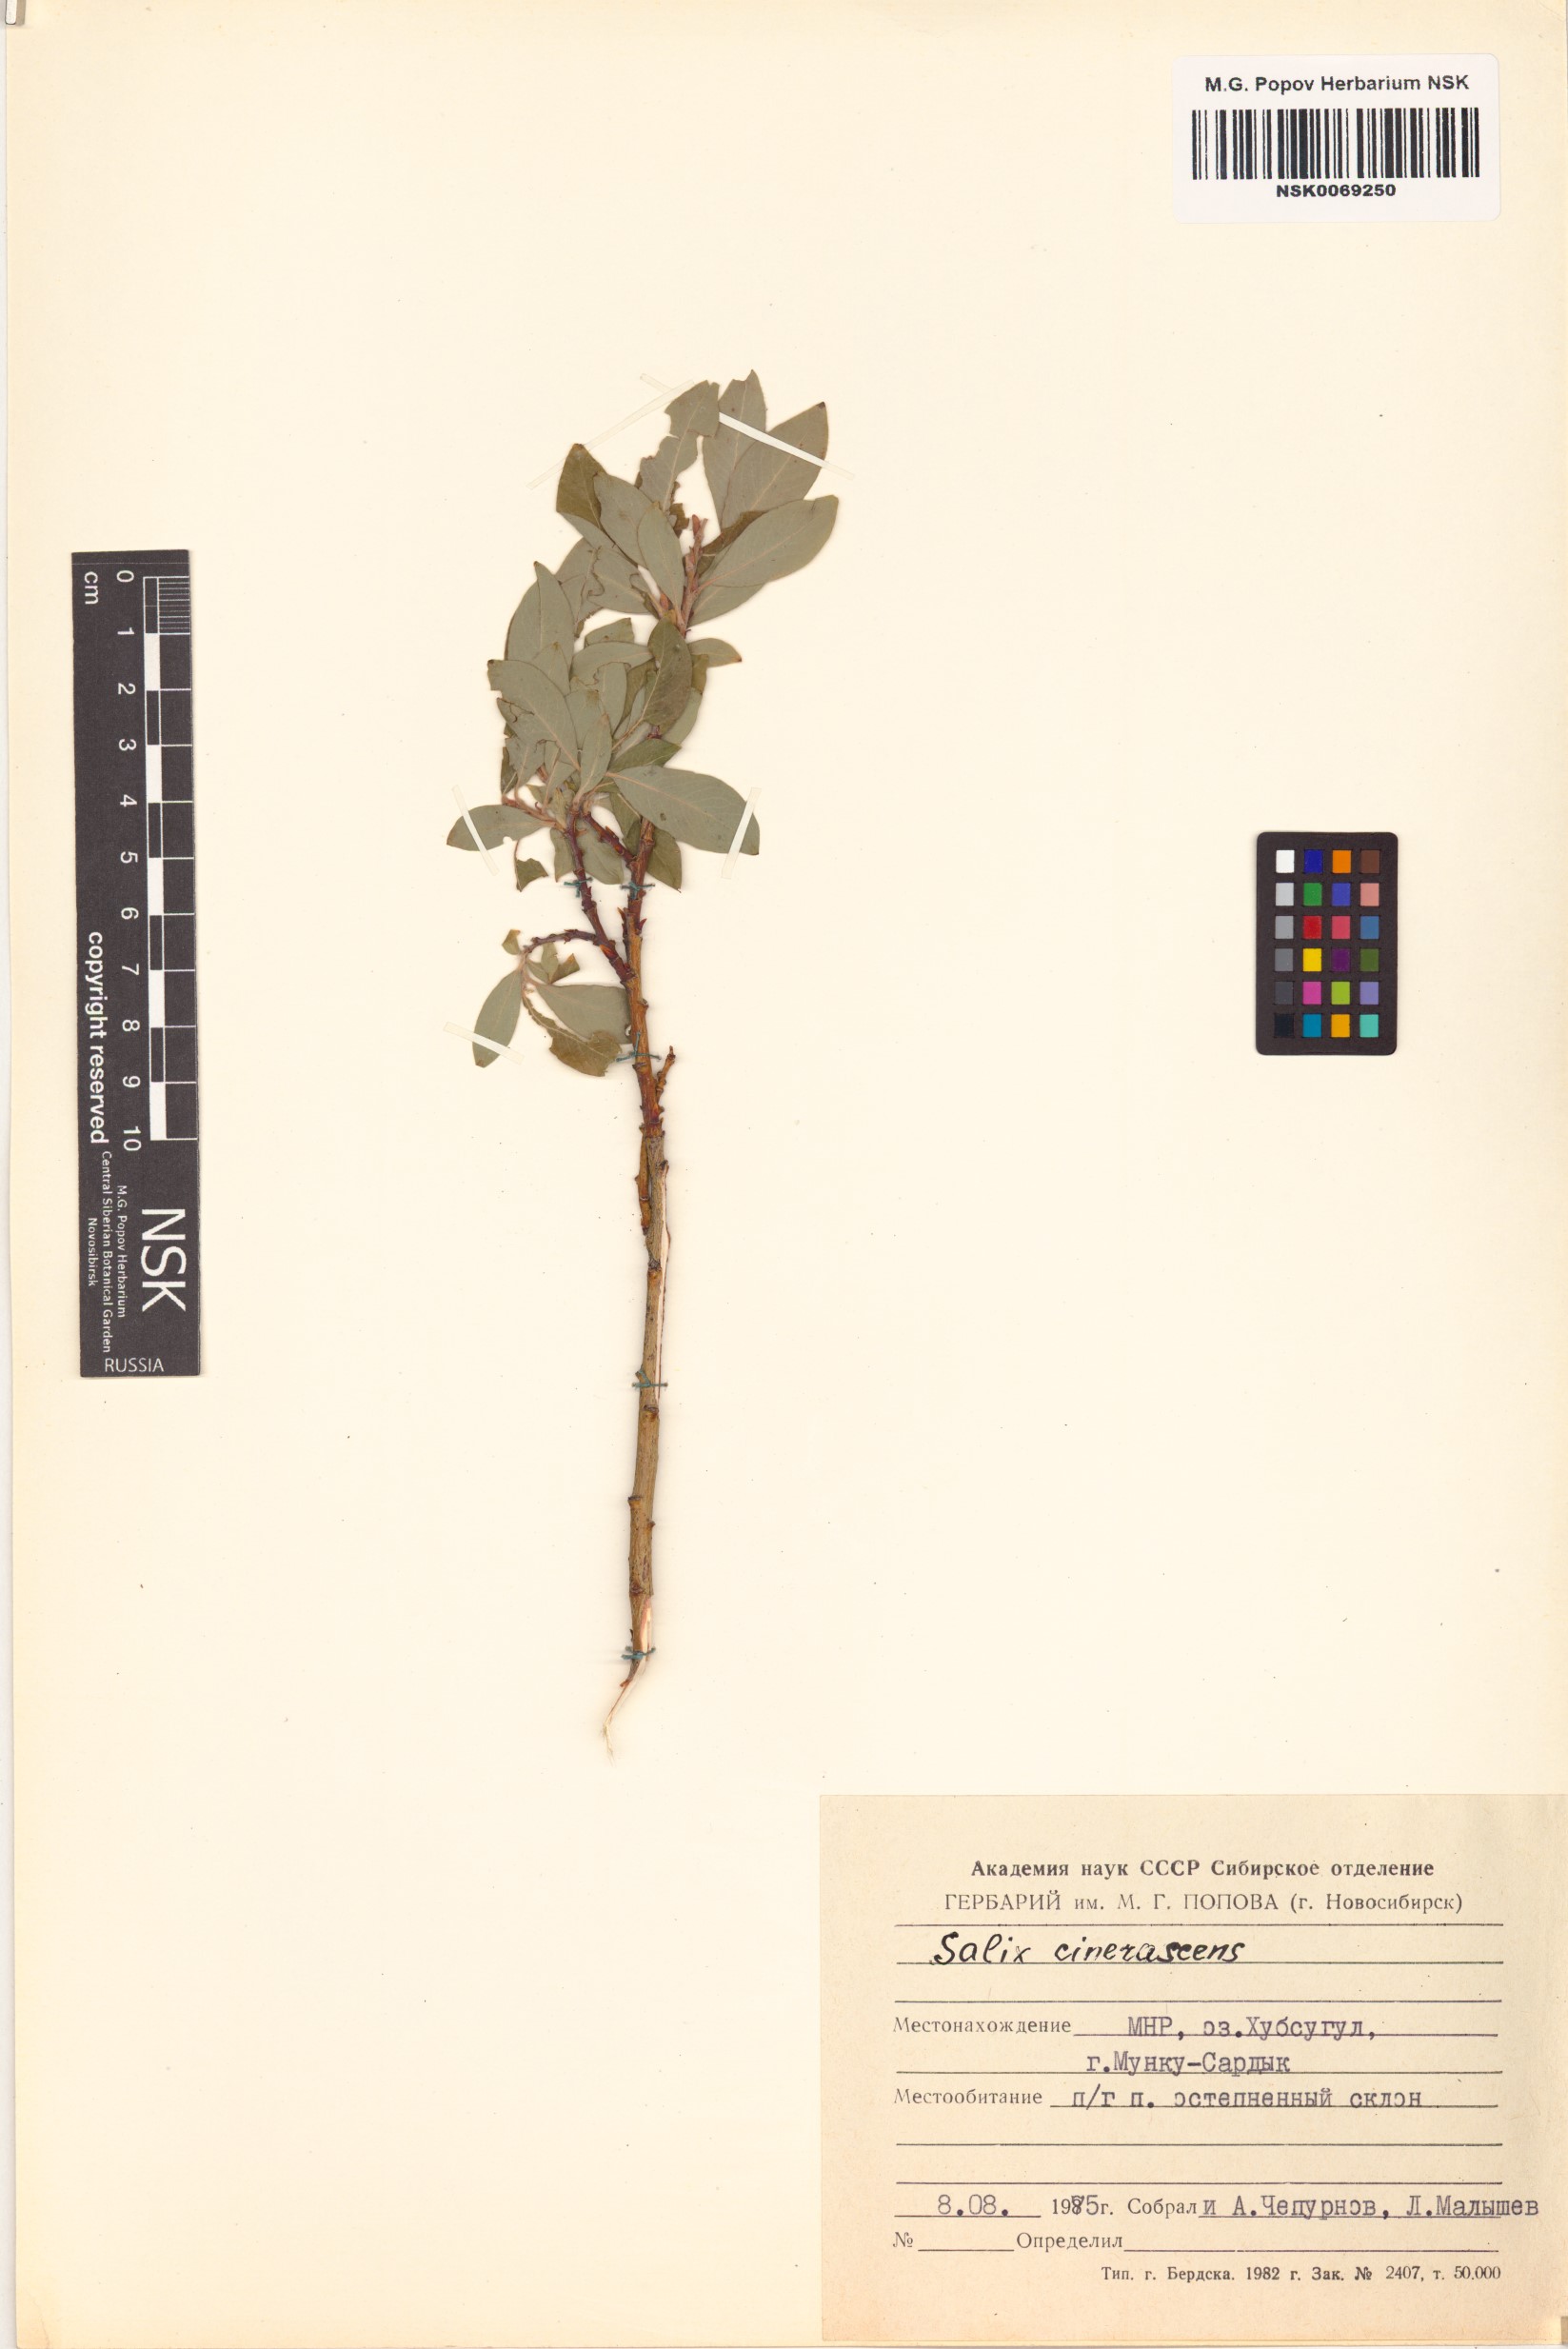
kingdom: Plantae
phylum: Tracheophyta
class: Magnoliopsida
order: Malpighiales
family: Salicaceae
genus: Salix
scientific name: Salix
